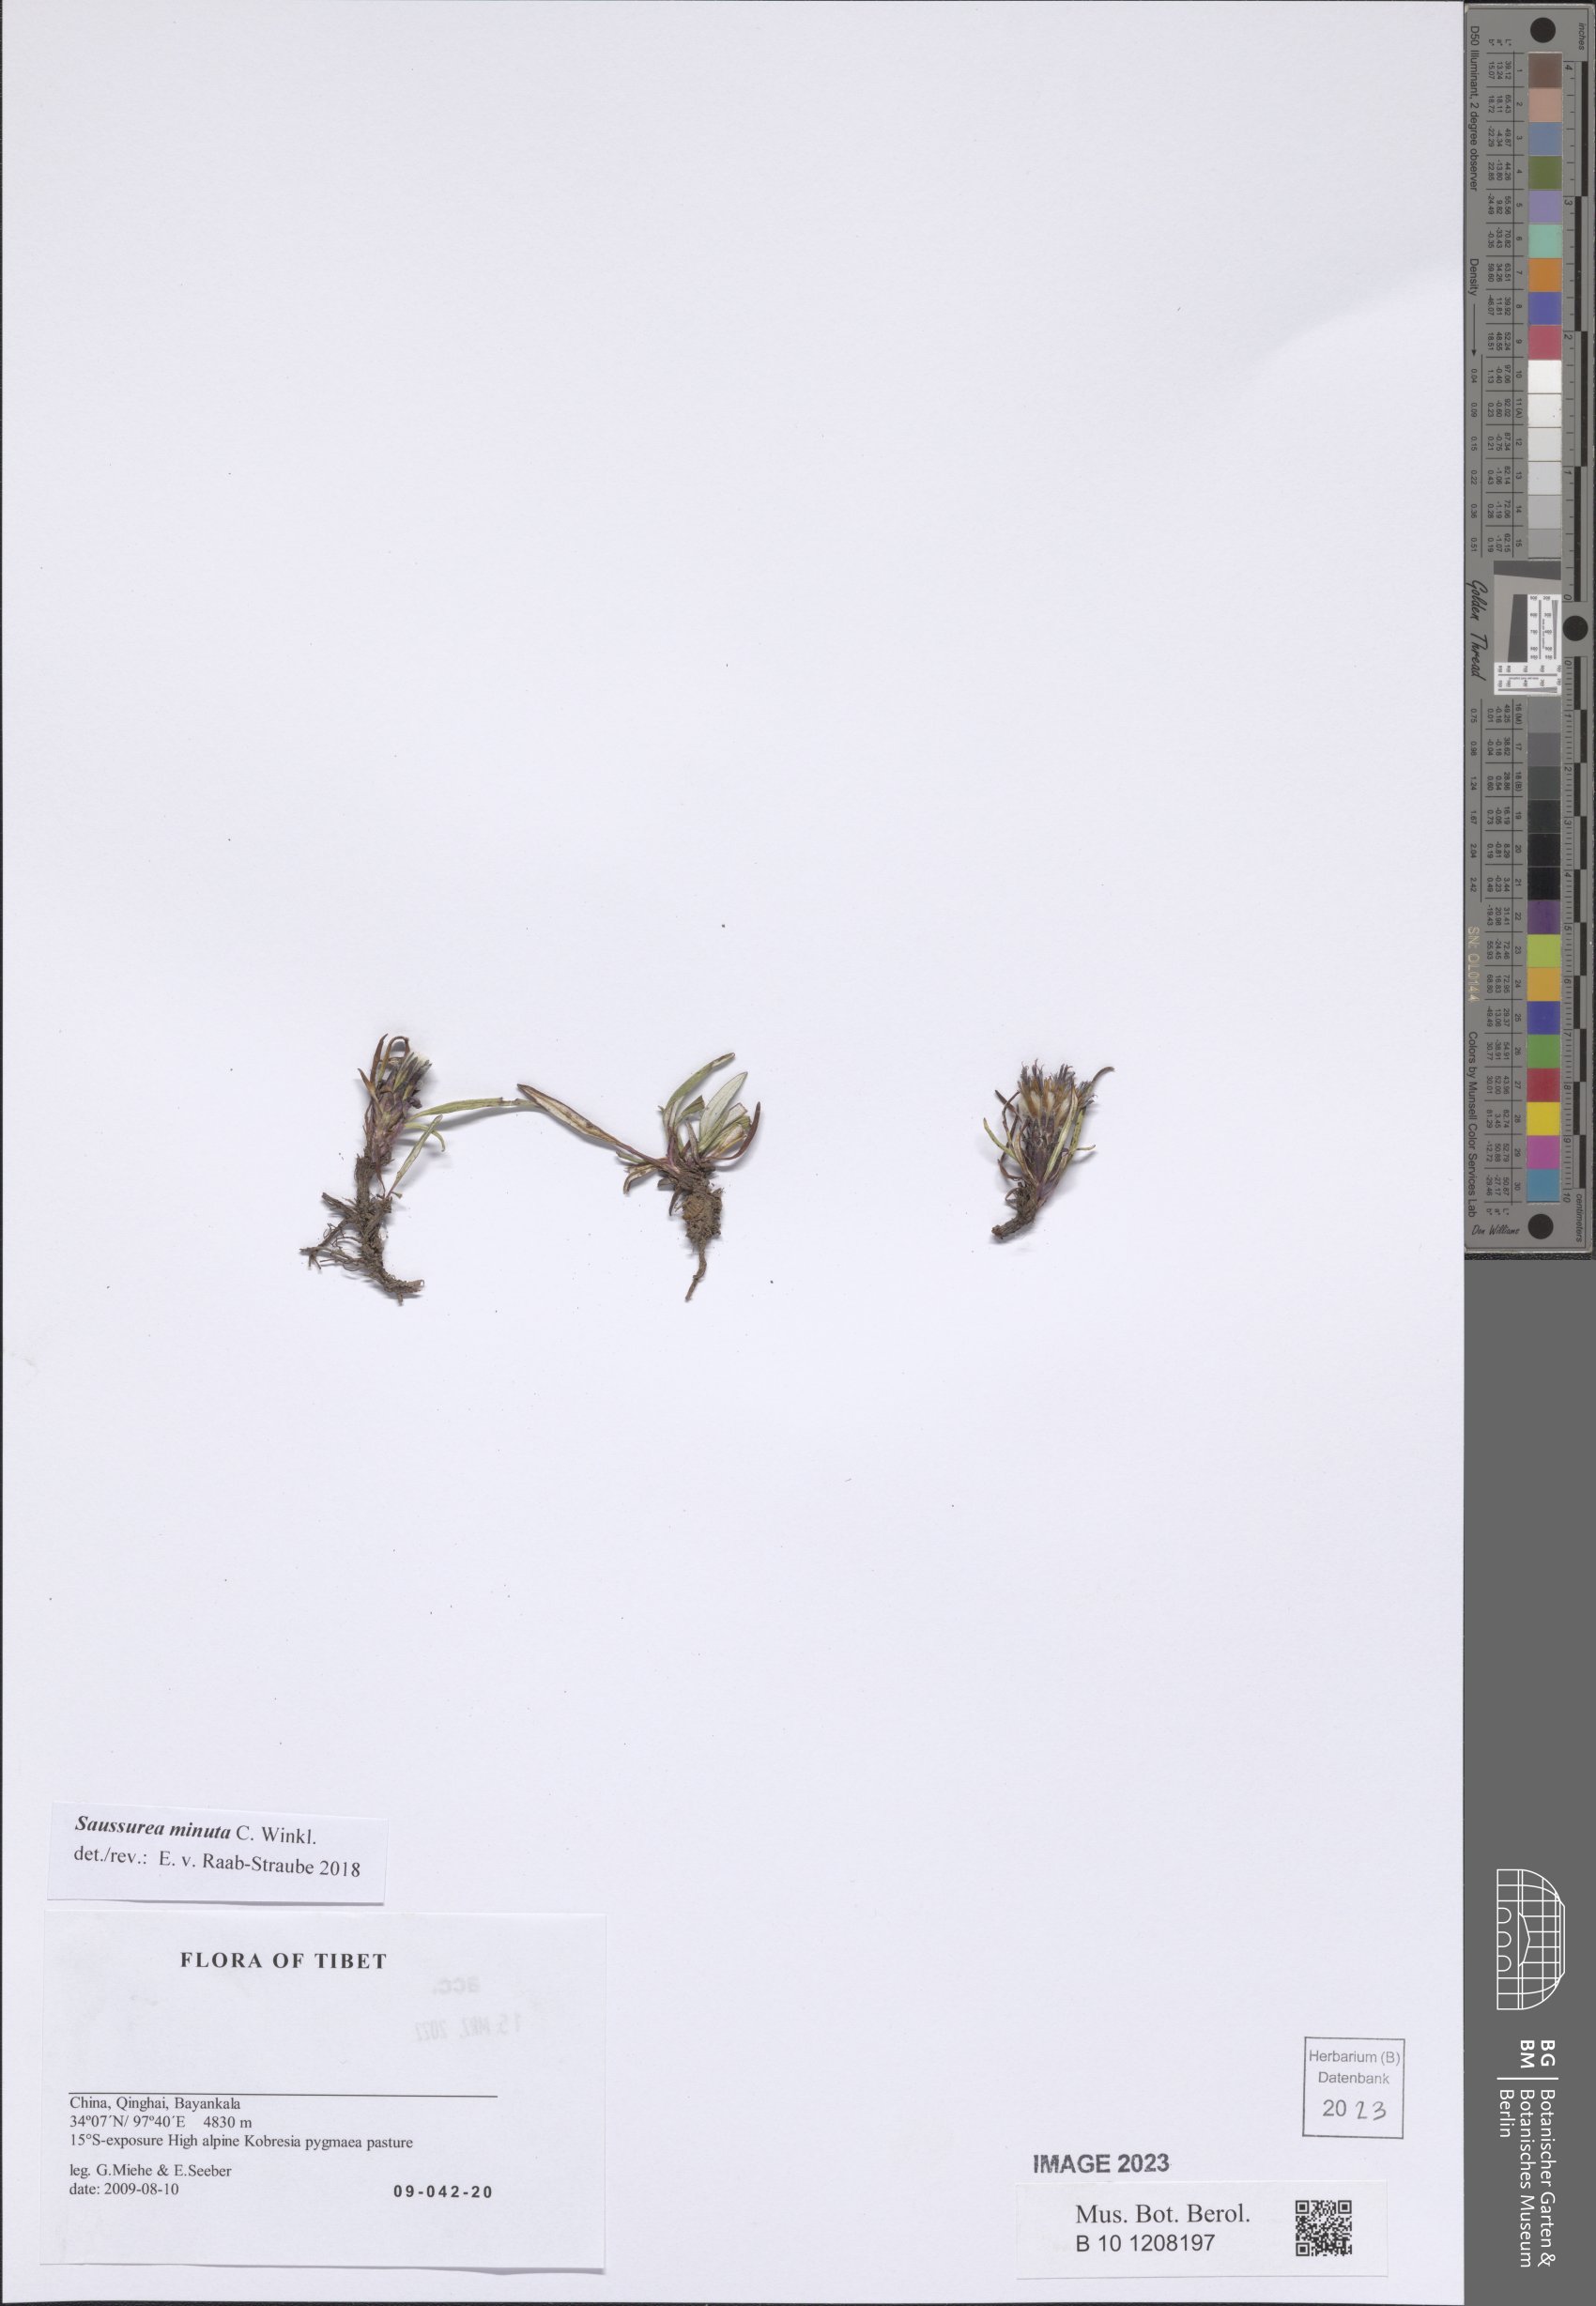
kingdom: Plantae
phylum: Tracheophyta
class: Magnoliopsida
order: Asterales
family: Asteraceae
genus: Saussurea
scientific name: Saussurea minuta
